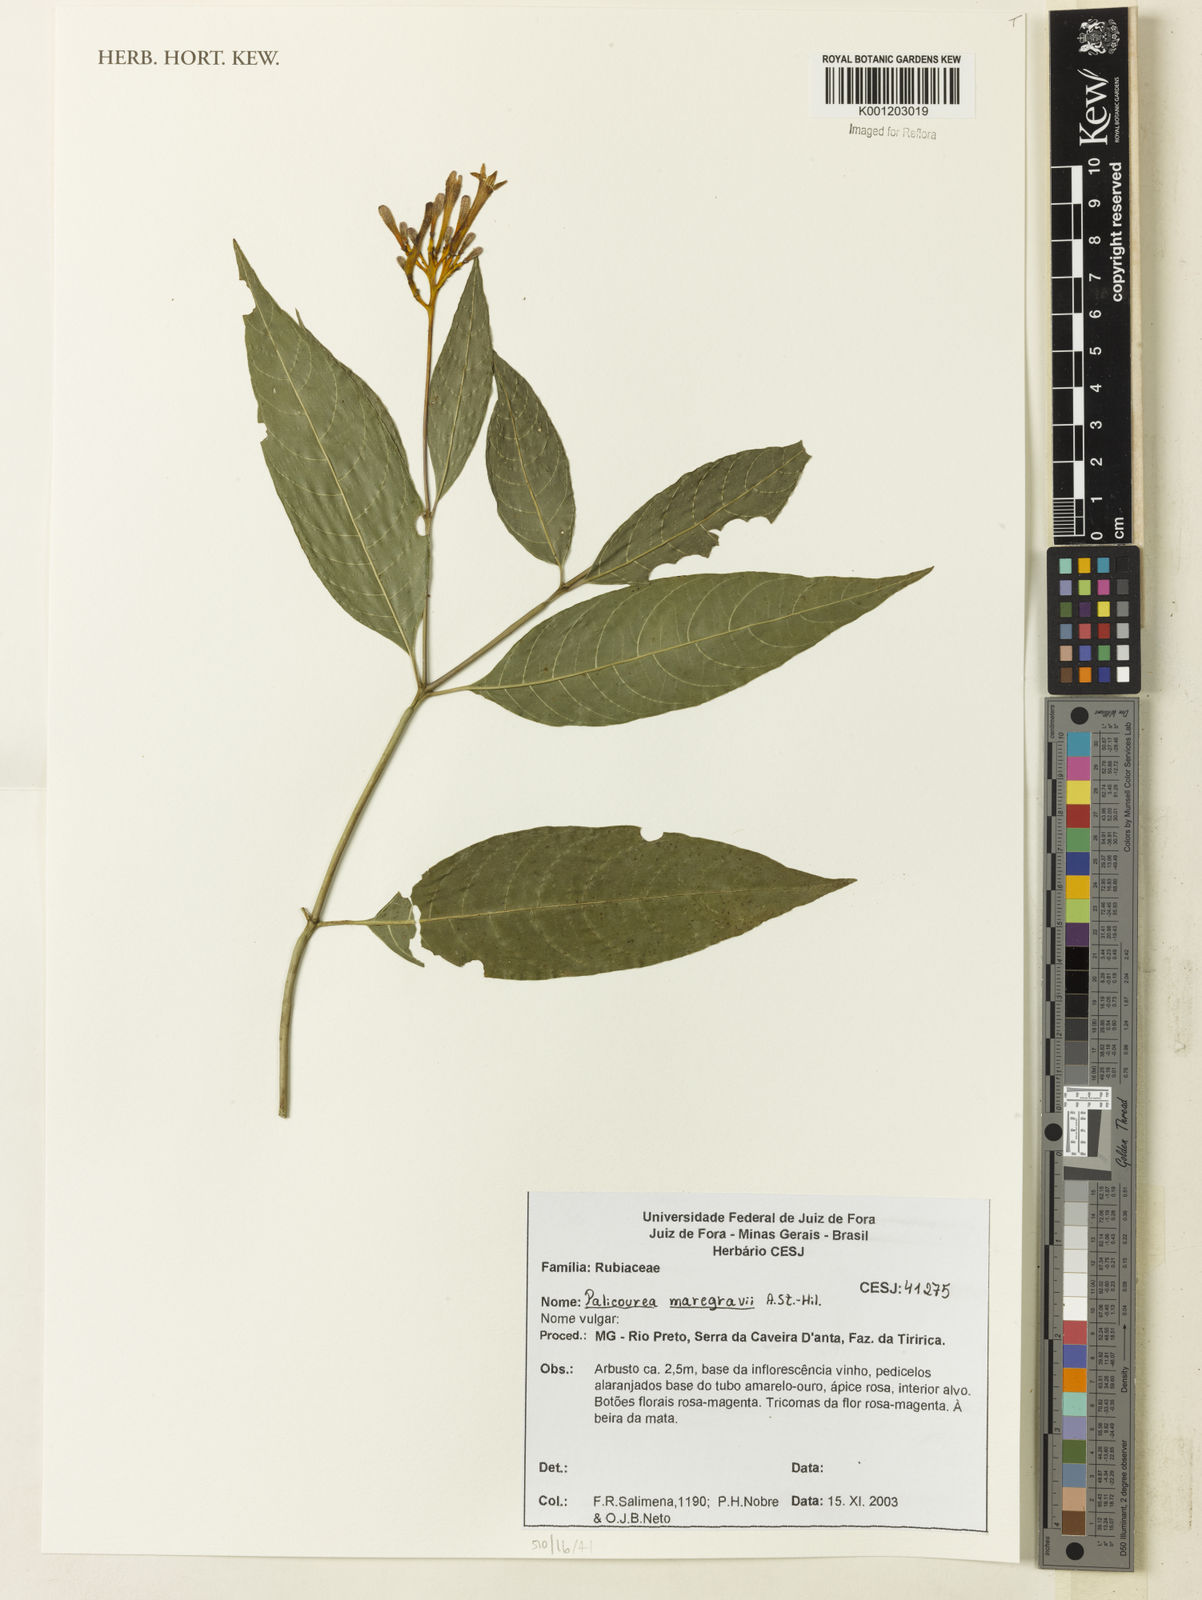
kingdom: Plantae
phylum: Tracheophyta
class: Magnoliopsida
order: Gentianales
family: Rubiaceae
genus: Palicourea
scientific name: Palicourea marcgravii
